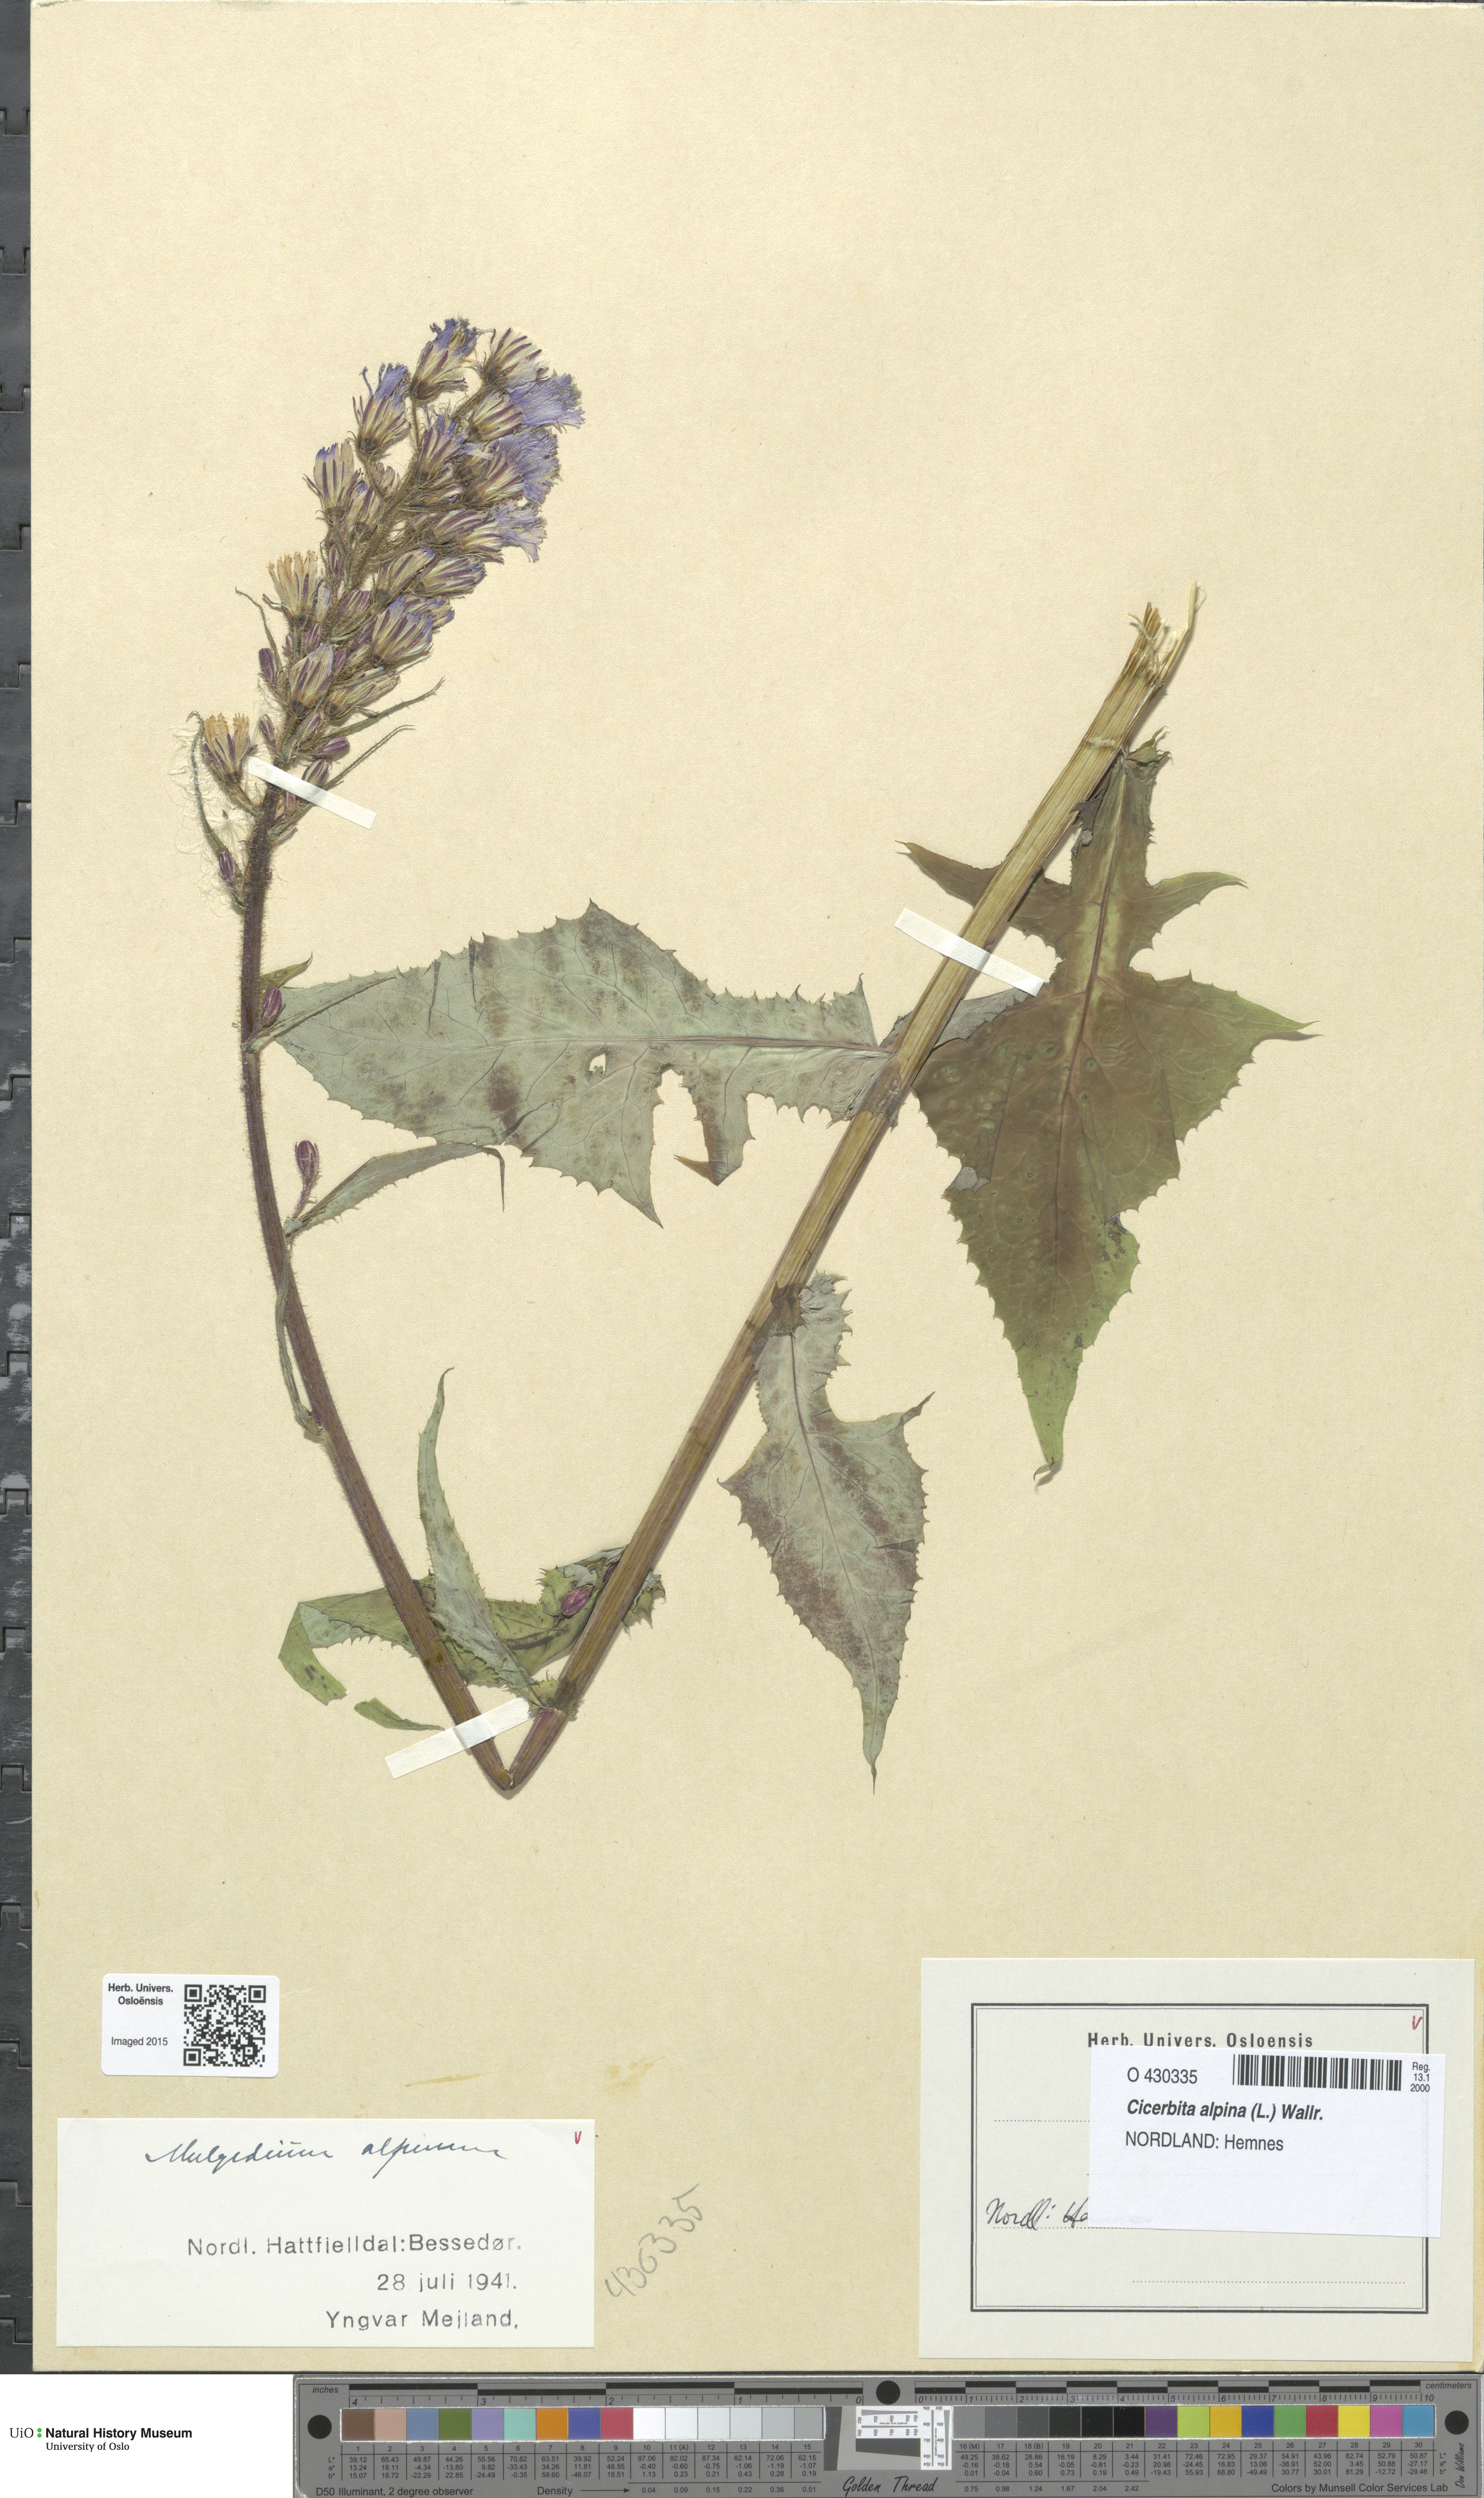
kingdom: Plantae
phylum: Tracheophyta
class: Magnoliopsida
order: Asterales
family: Asteraceae
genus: Cicerbita
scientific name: Cicerbita alpina
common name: Alpine blue-sow-thistle
